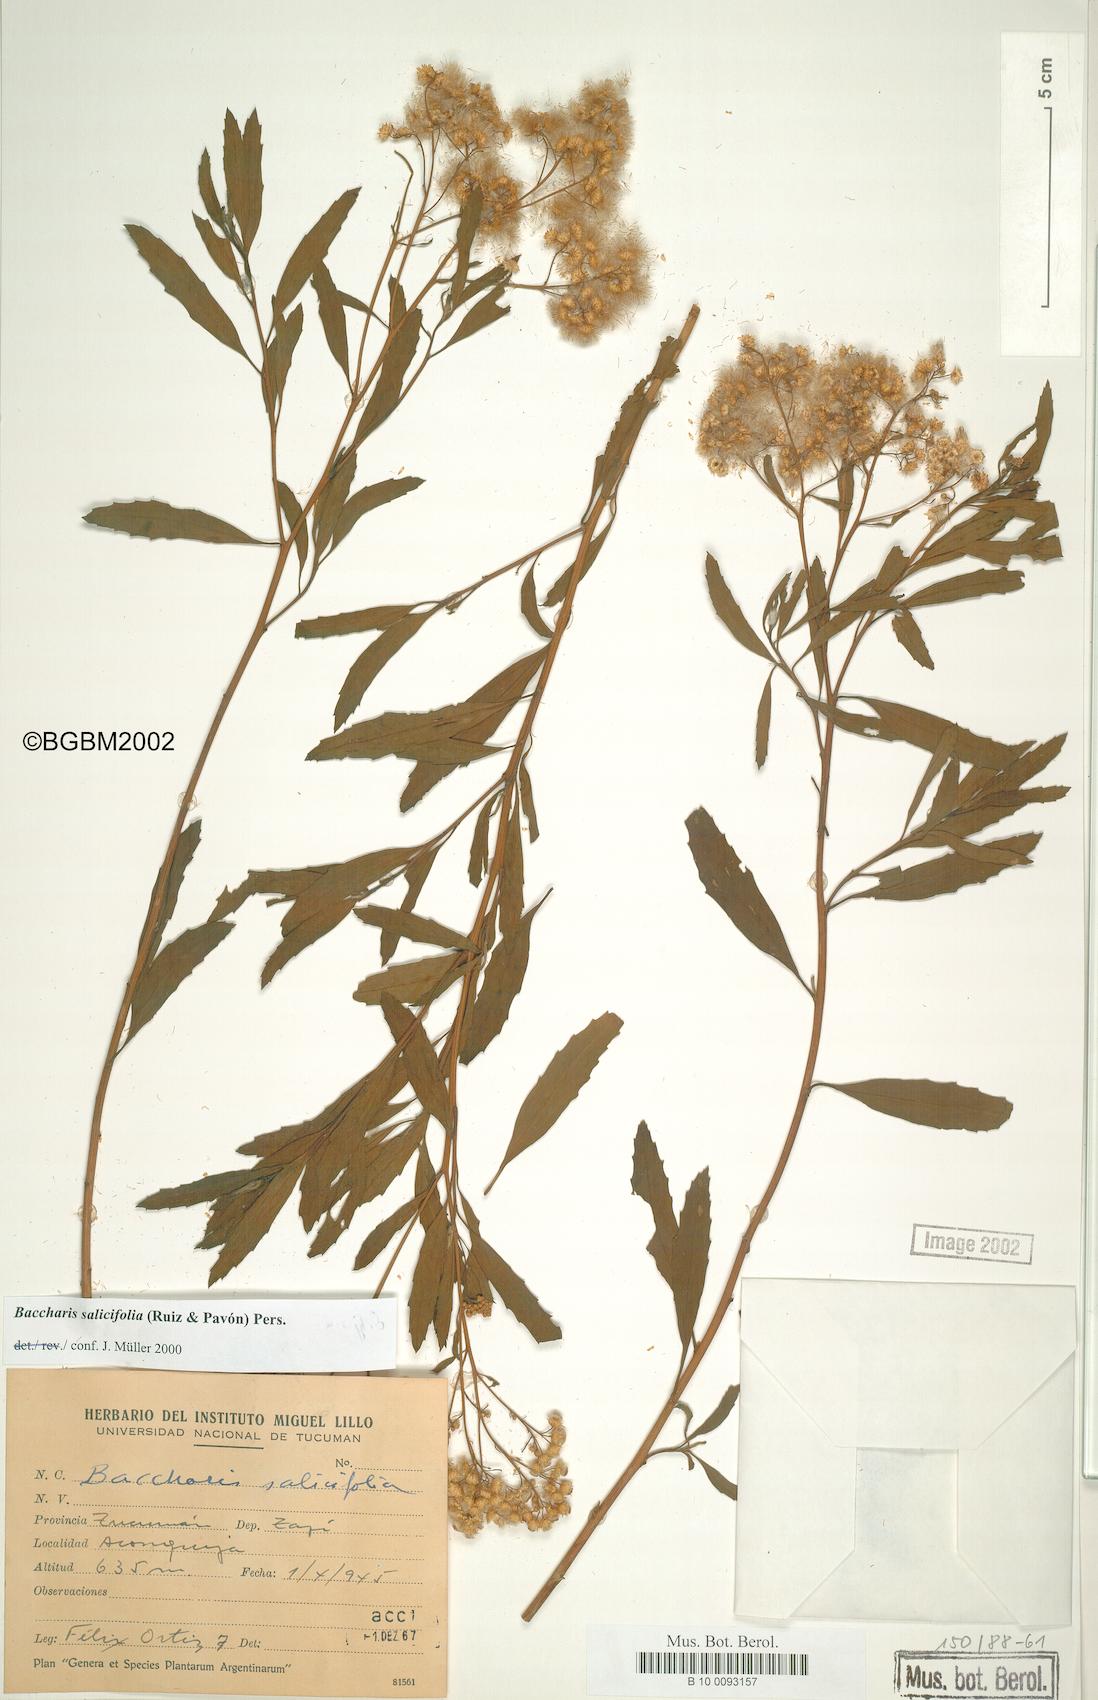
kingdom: Plantae
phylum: Tracheophyta
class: Magnoliopsida
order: Asterales
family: Asteraceae
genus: Baccharis
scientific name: Baccharis salicifolia
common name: Sticky baccharis
